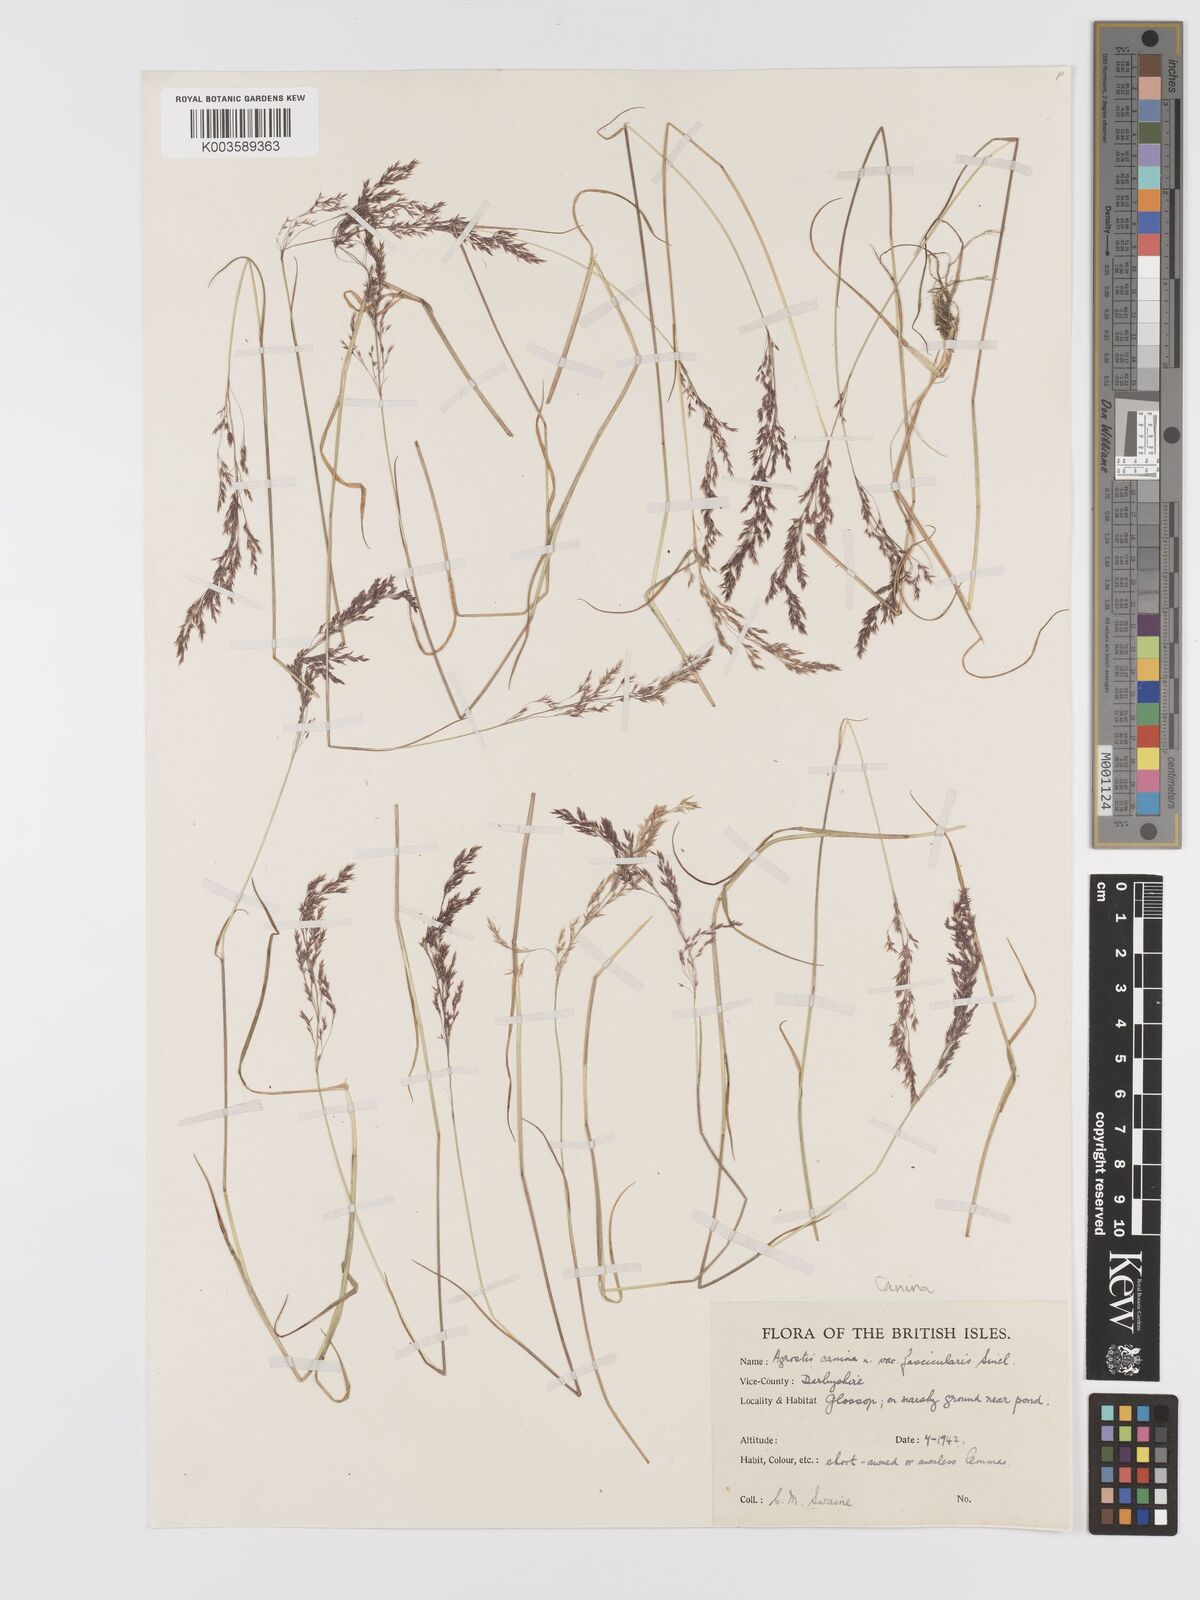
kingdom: Plantae
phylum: Tracheophyta
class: Liliopsida
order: Poales
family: Poaceae
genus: Agrostis
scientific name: Agrostis canina
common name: Velvet bent
